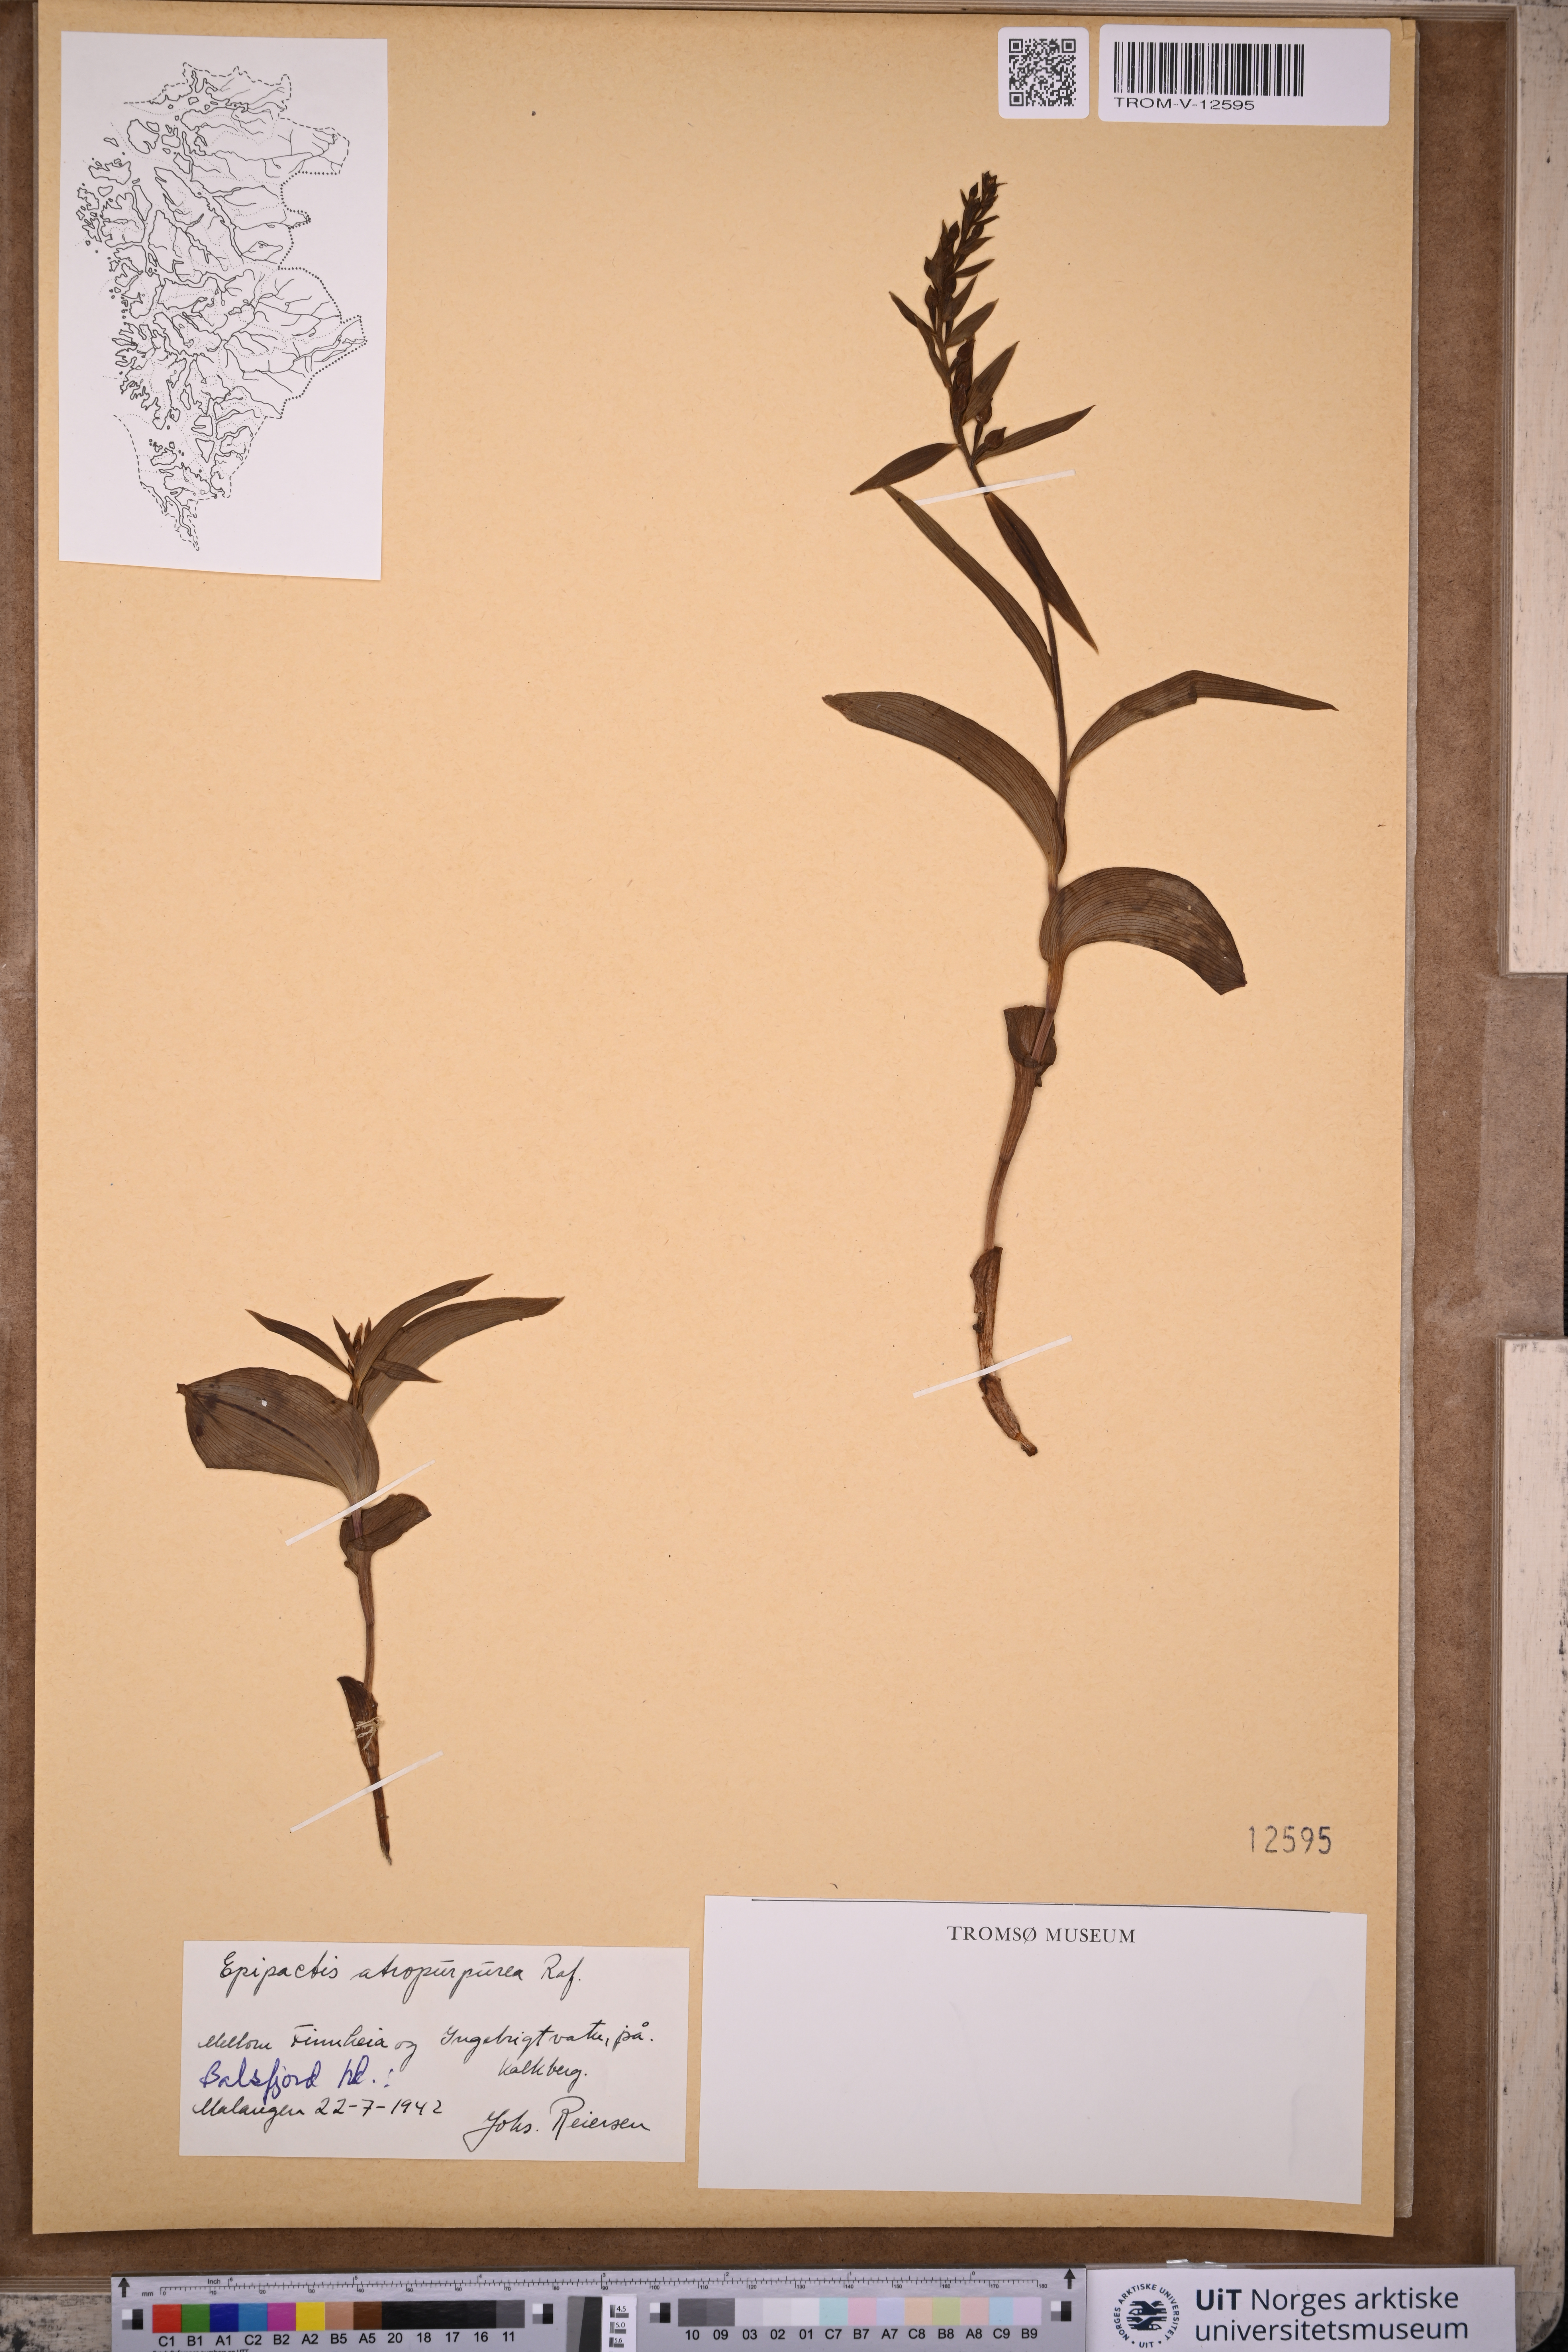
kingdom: Plantae
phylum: Tracheophyta
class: Liliopsida
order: Asparagales
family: Orchidaceae
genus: Epipactis
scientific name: Epipactis atrorubens
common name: Dark-red helleborine
